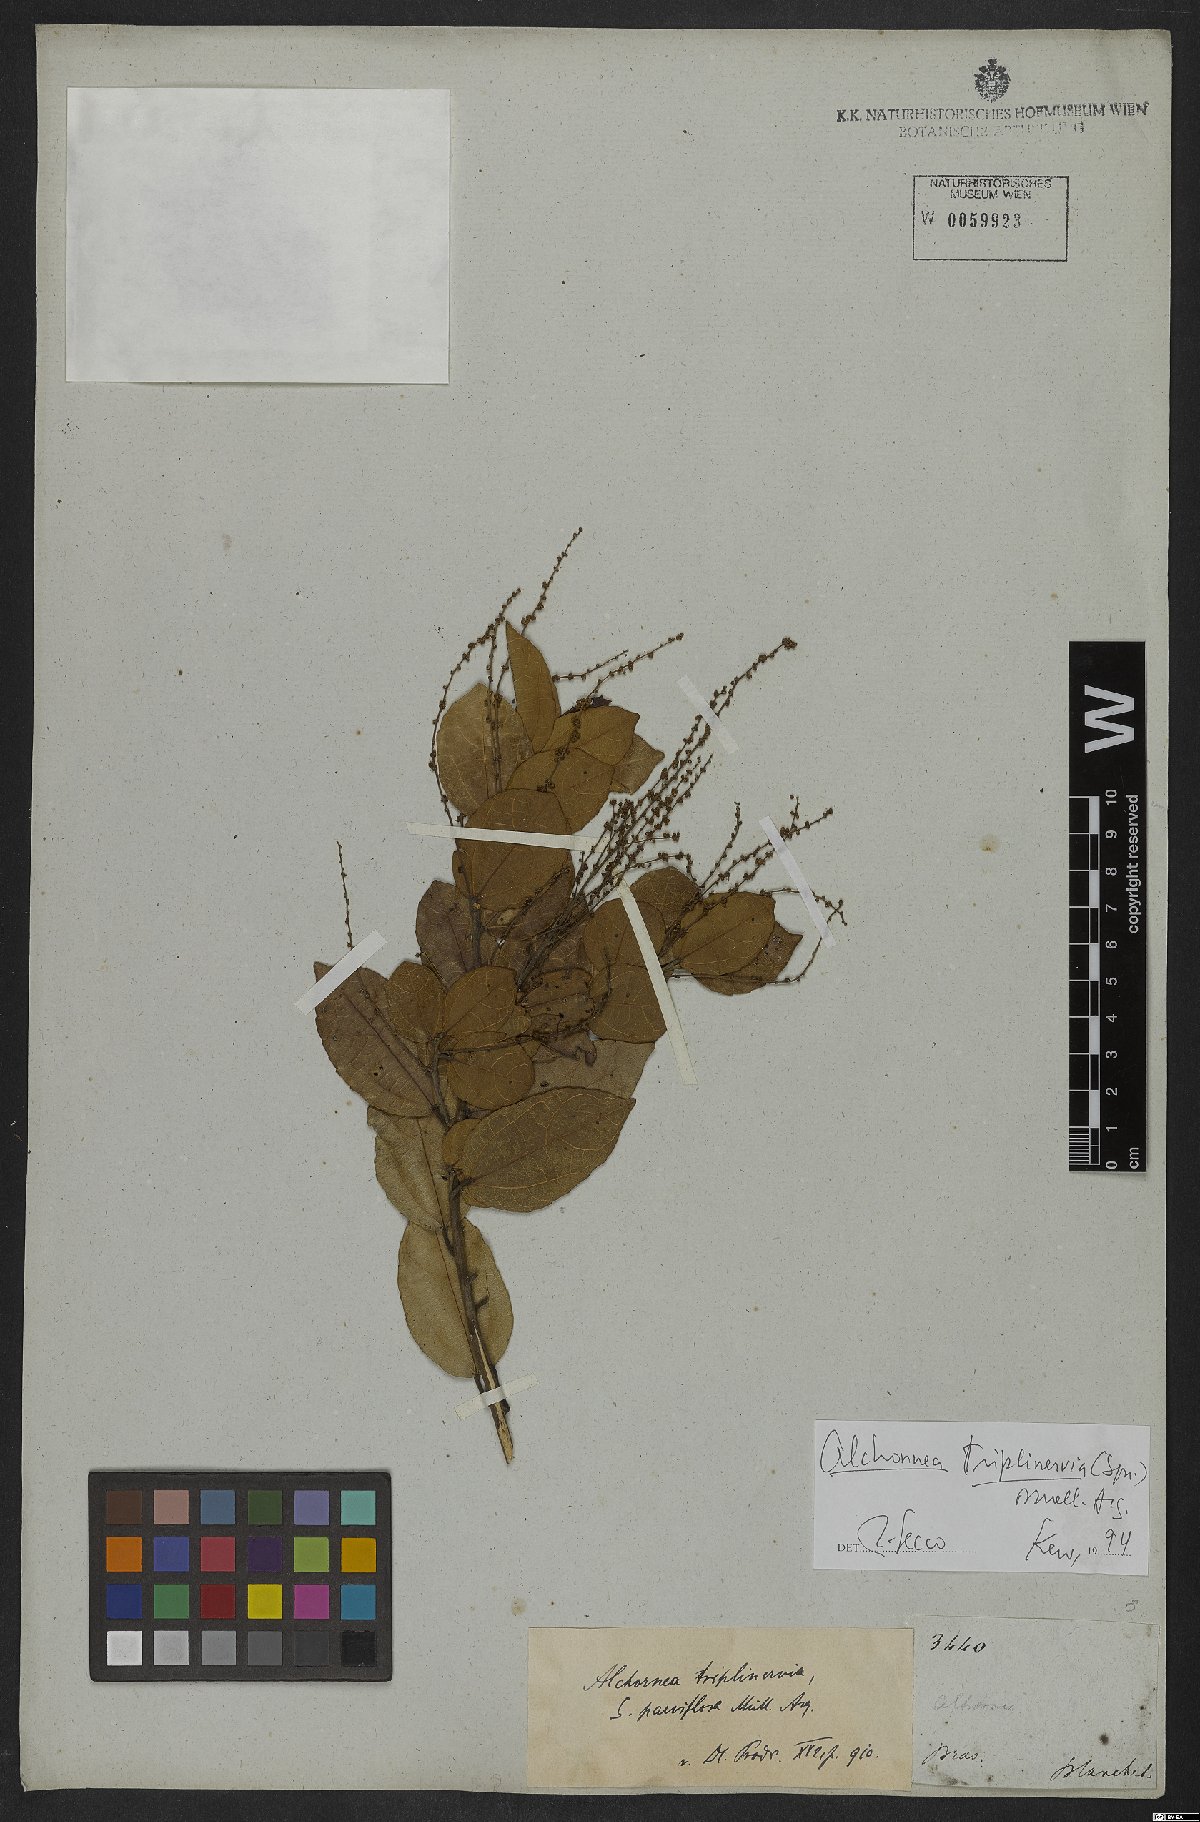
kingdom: Plantae
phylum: Tracheophyta
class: Magnoliopsida
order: Malpighiales
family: Euphorbiaceae
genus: Alchornea
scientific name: Alchornea triplinervia
